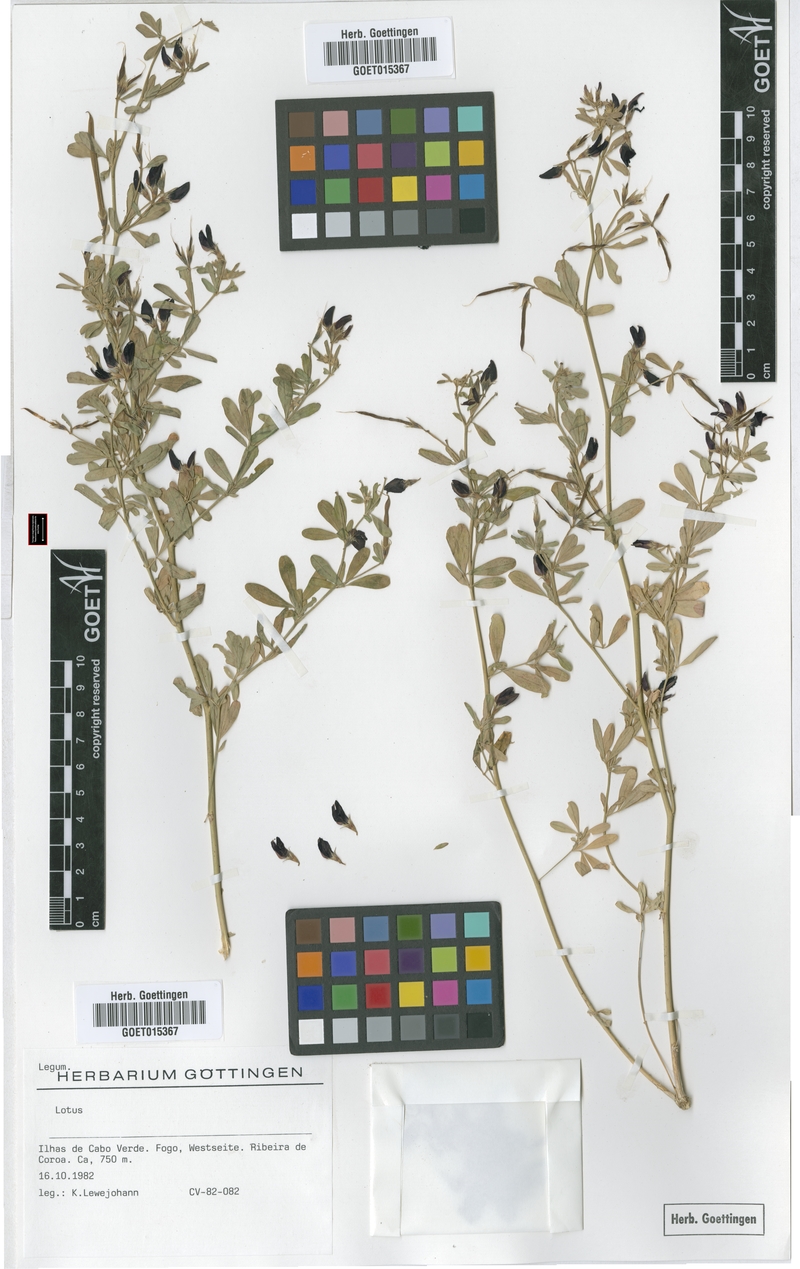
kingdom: Plantae
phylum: Tracheophyta
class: Magnoliopsida
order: Fabales
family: Fabaceae
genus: Lotus
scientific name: Lotus
